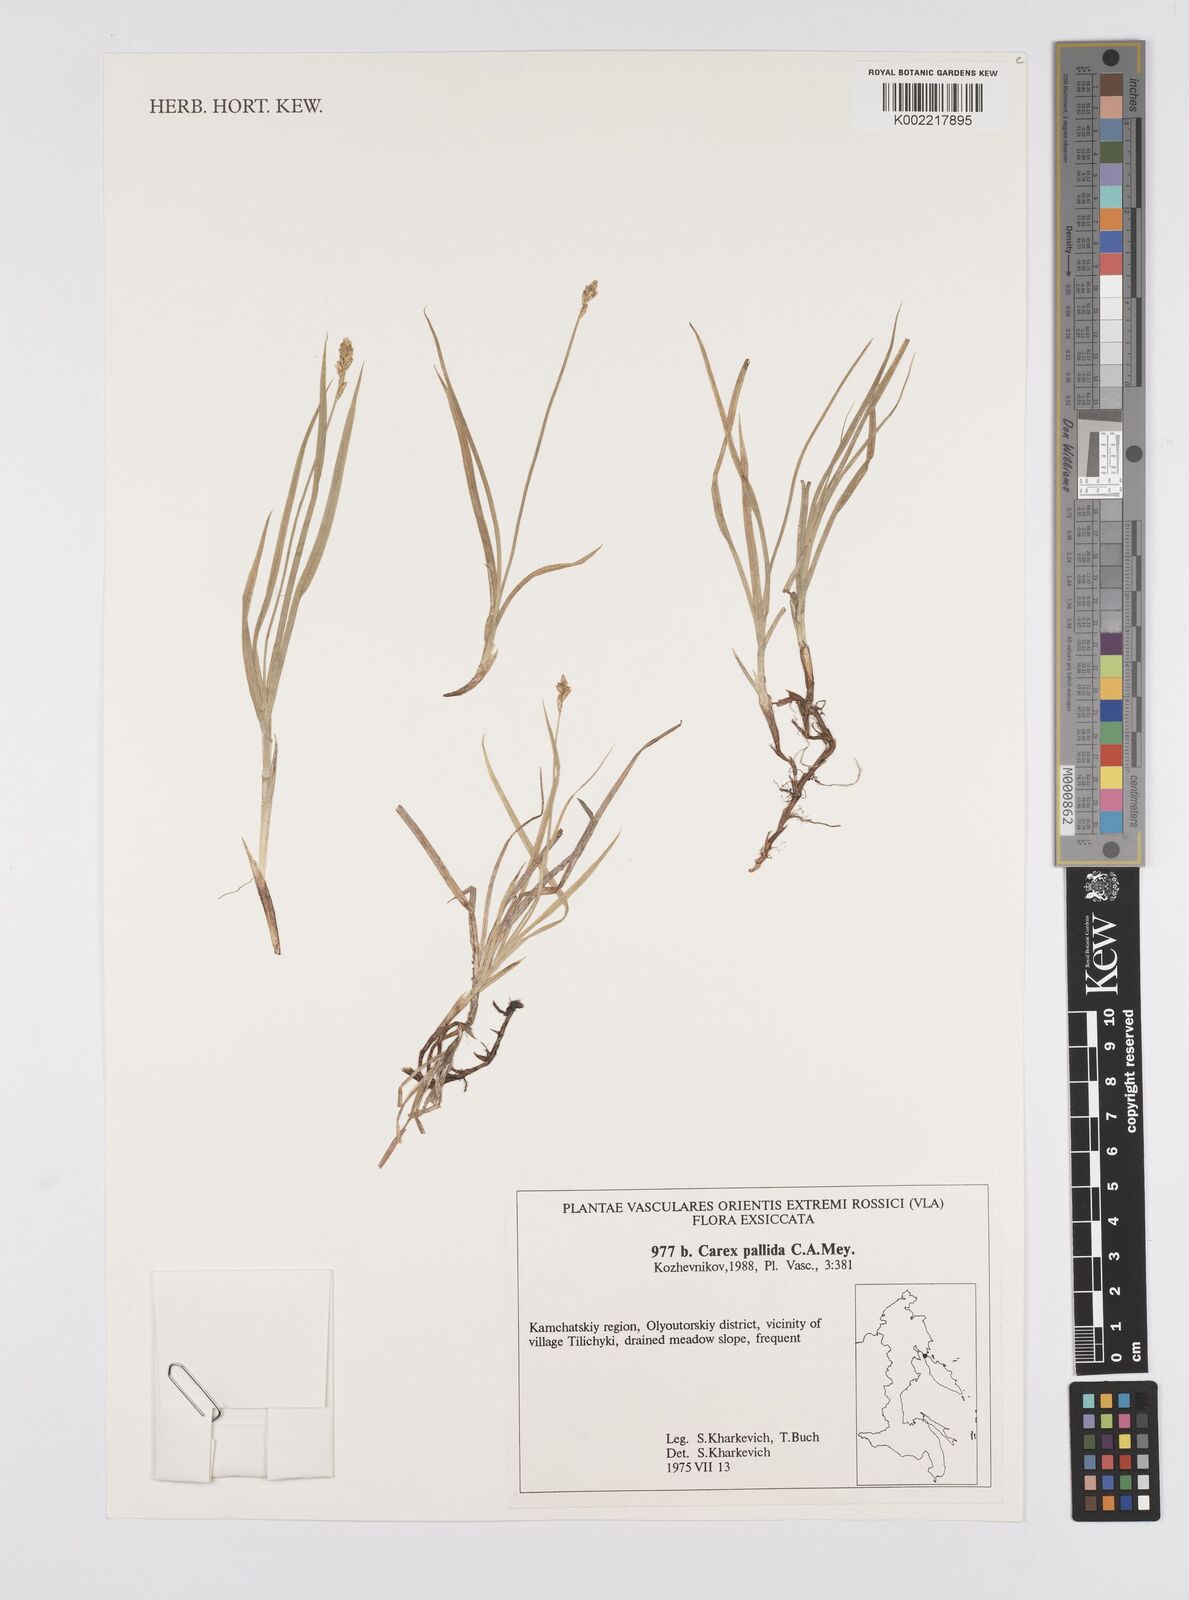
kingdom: Plantae
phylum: Tracheophyta
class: Liliopsida
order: Poales
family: Cyperaceae
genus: Carex
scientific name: Carex accrescens
